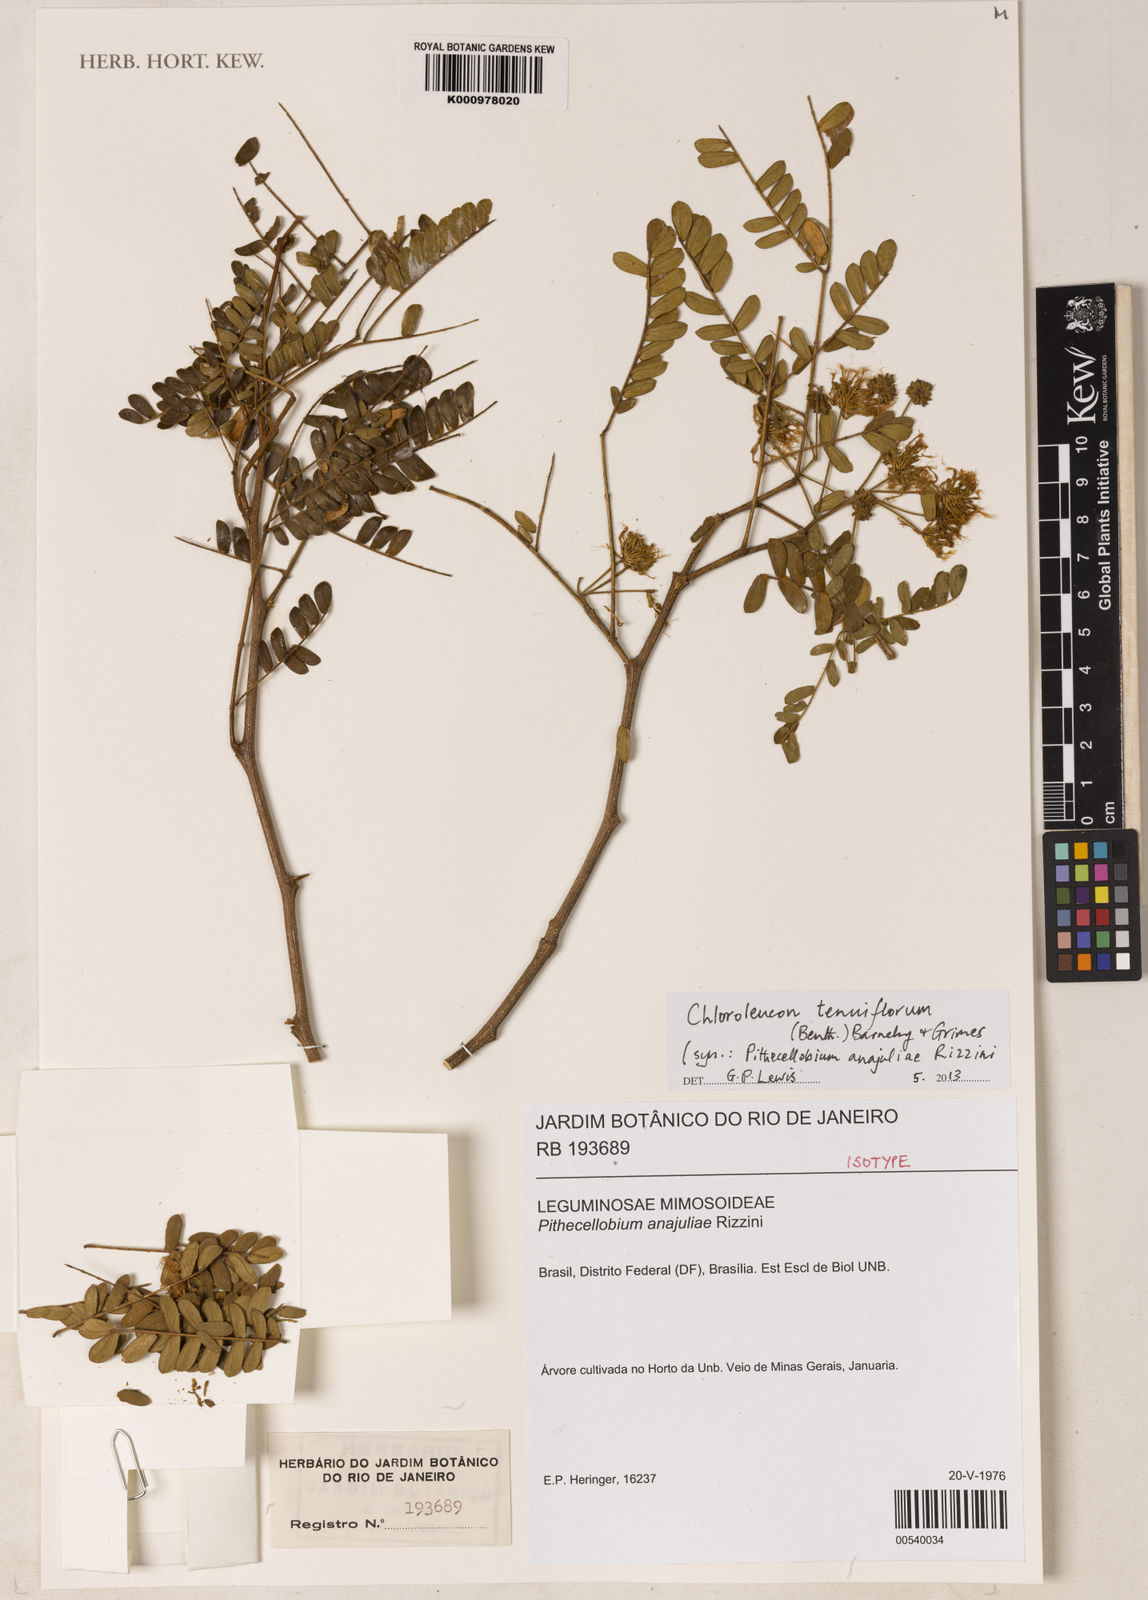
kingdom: Plantae
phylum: Tracheophyta
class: Magnoliopsida
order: Fabales
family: Fabaceae
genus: Chloroleucon
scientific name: Chloroleucon tenuiflorum
